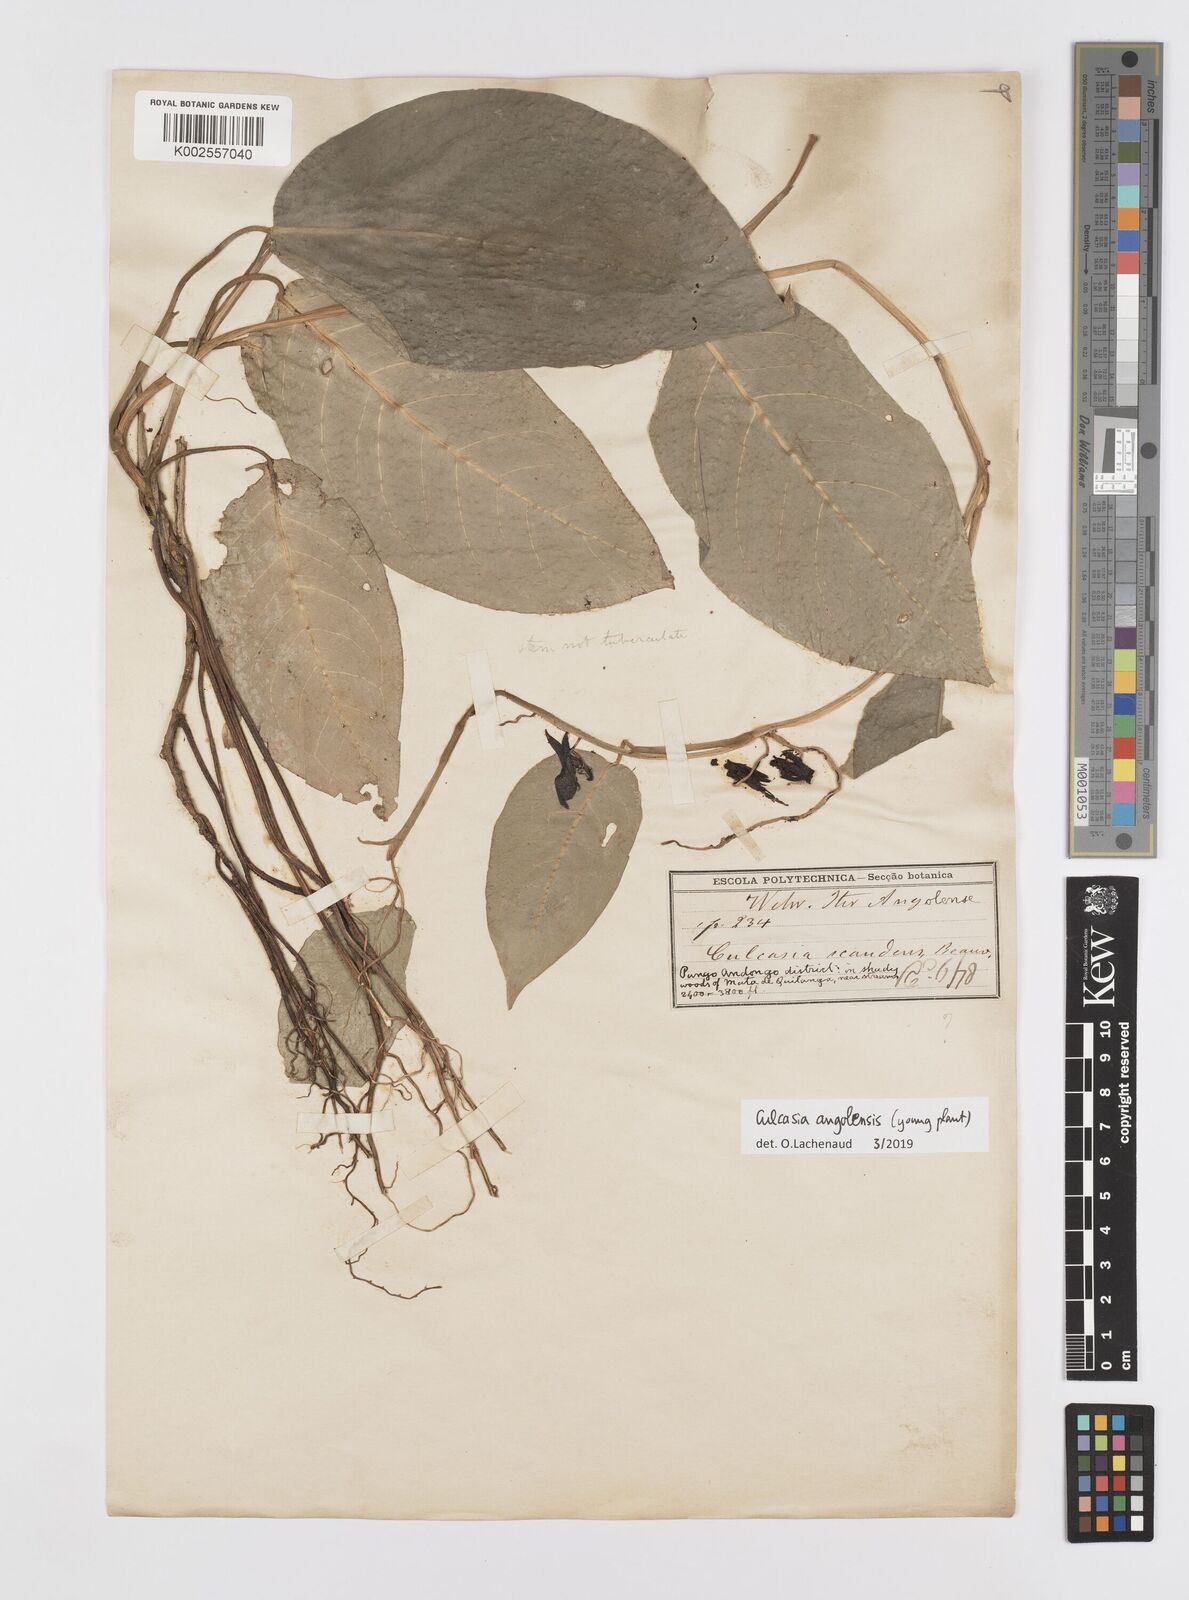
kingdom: Plantae
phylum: Tracheophyta
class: Liliopsida
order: Alismatales
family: Araceae
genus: Culcasia
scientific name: Culcasia angolensis
